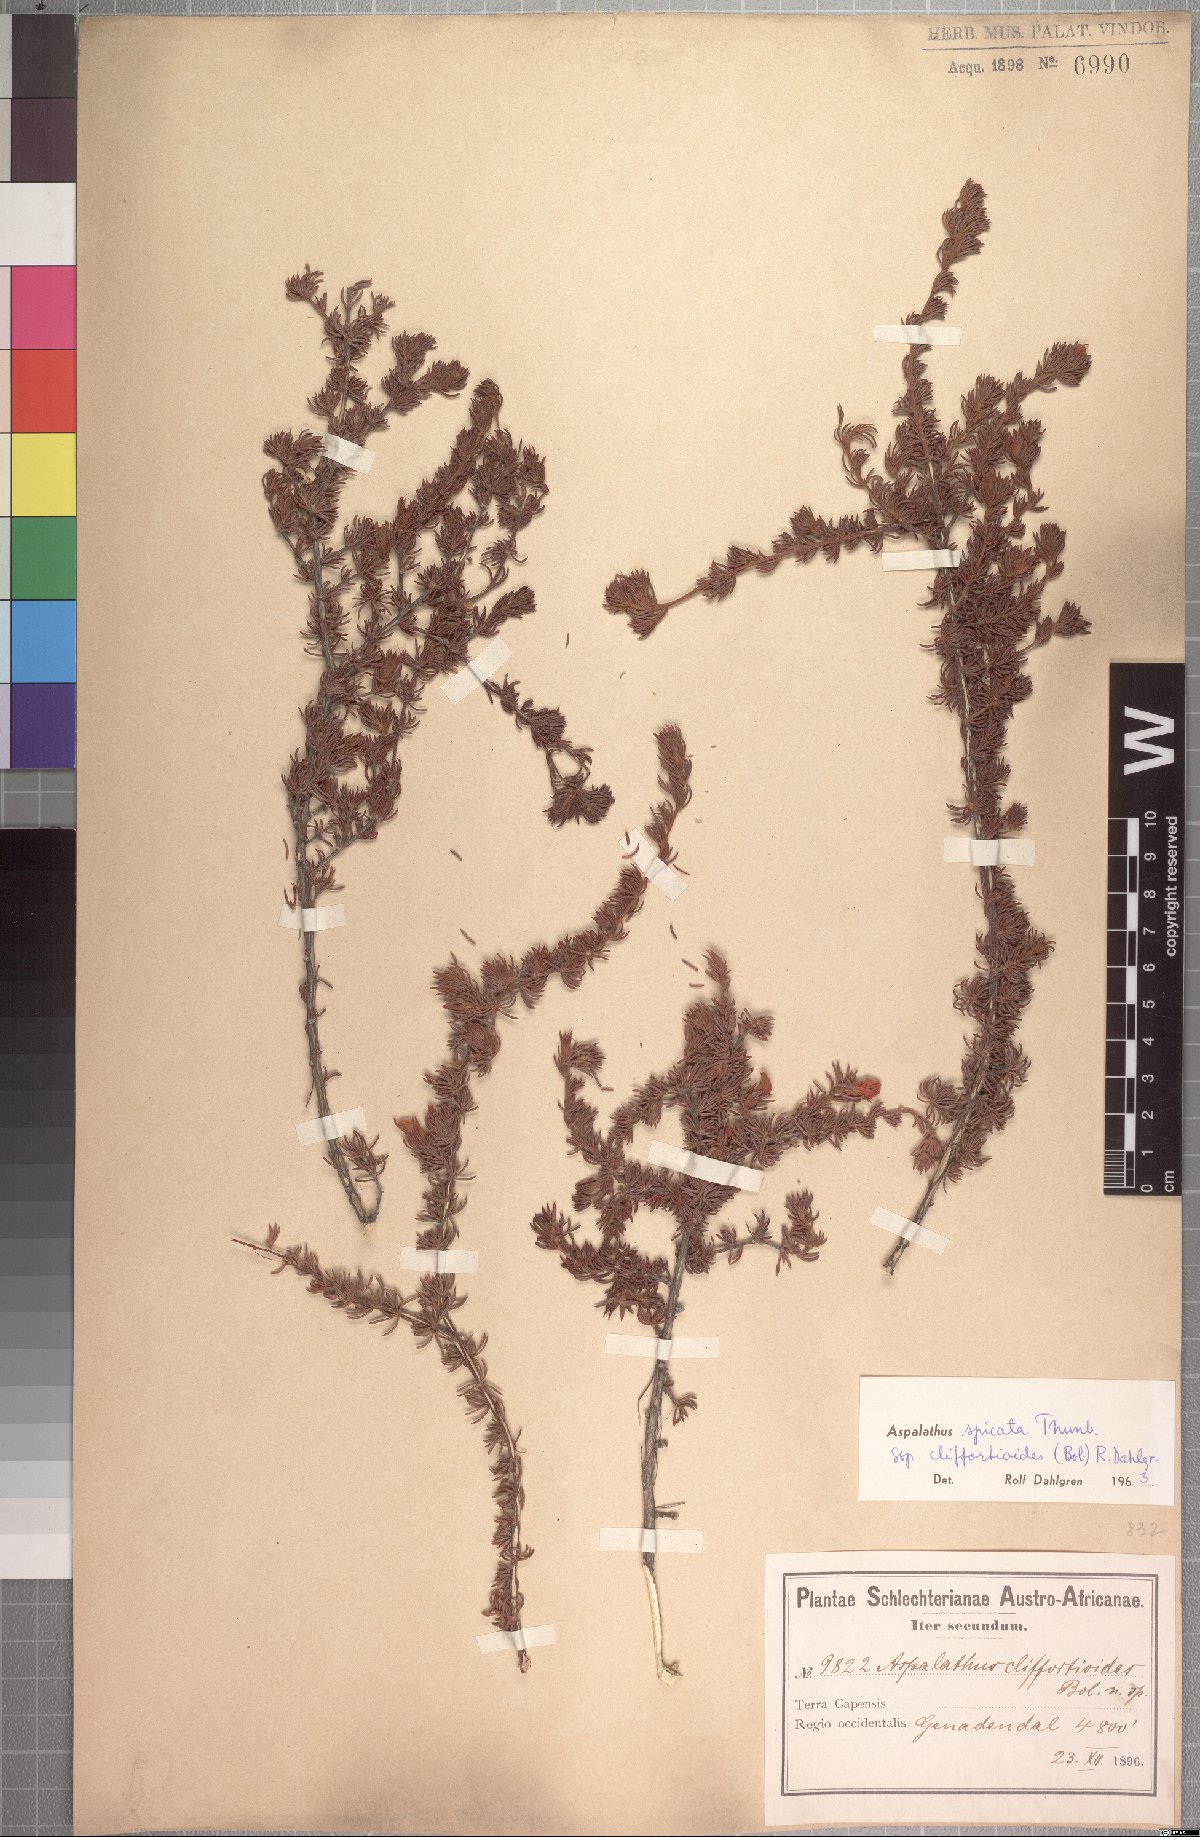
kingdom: Plantae
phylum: Tracheophyta
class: Magnoliopsida
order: Fabales
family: Fabaceae
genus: Aspalathus
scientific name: Aspalathus cliffortioides
